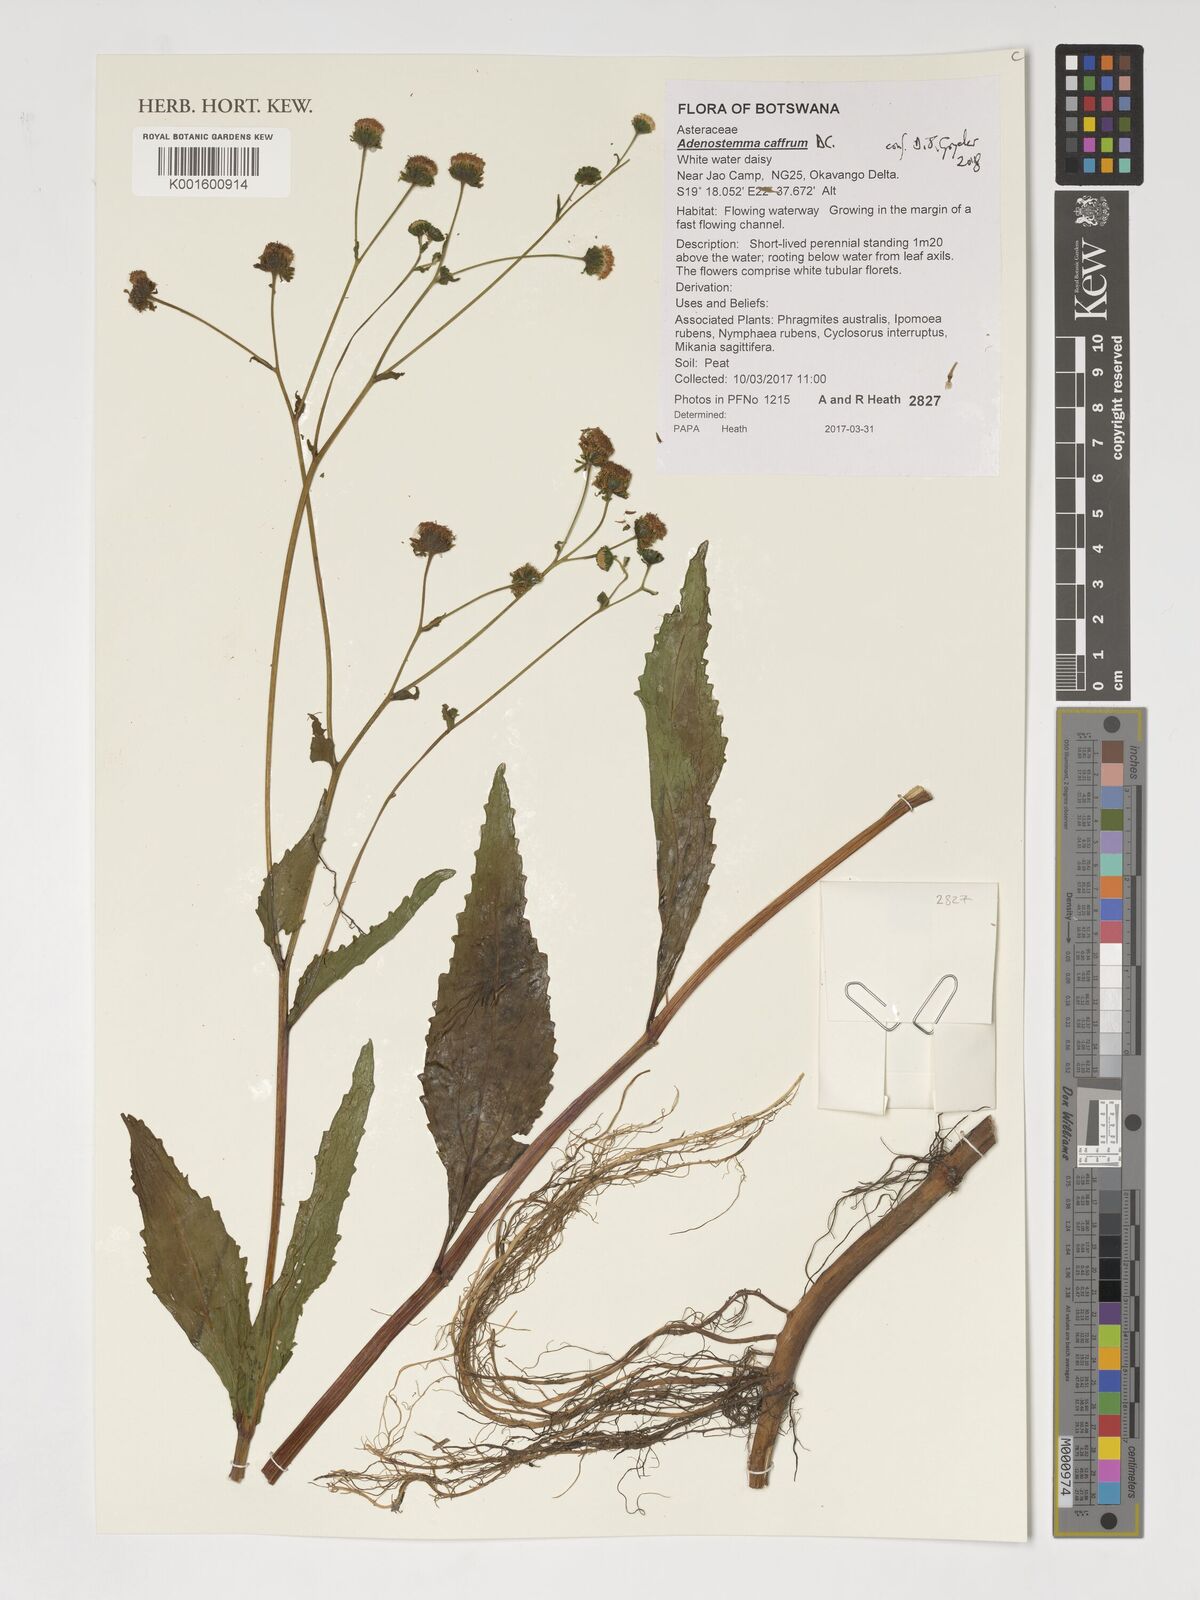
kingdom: Plantae
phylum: Tracheophyta
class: Magnoliopsida
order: Asterales
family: Asteraceae
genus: Adenostemma
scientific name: Adenostemma caffrum
